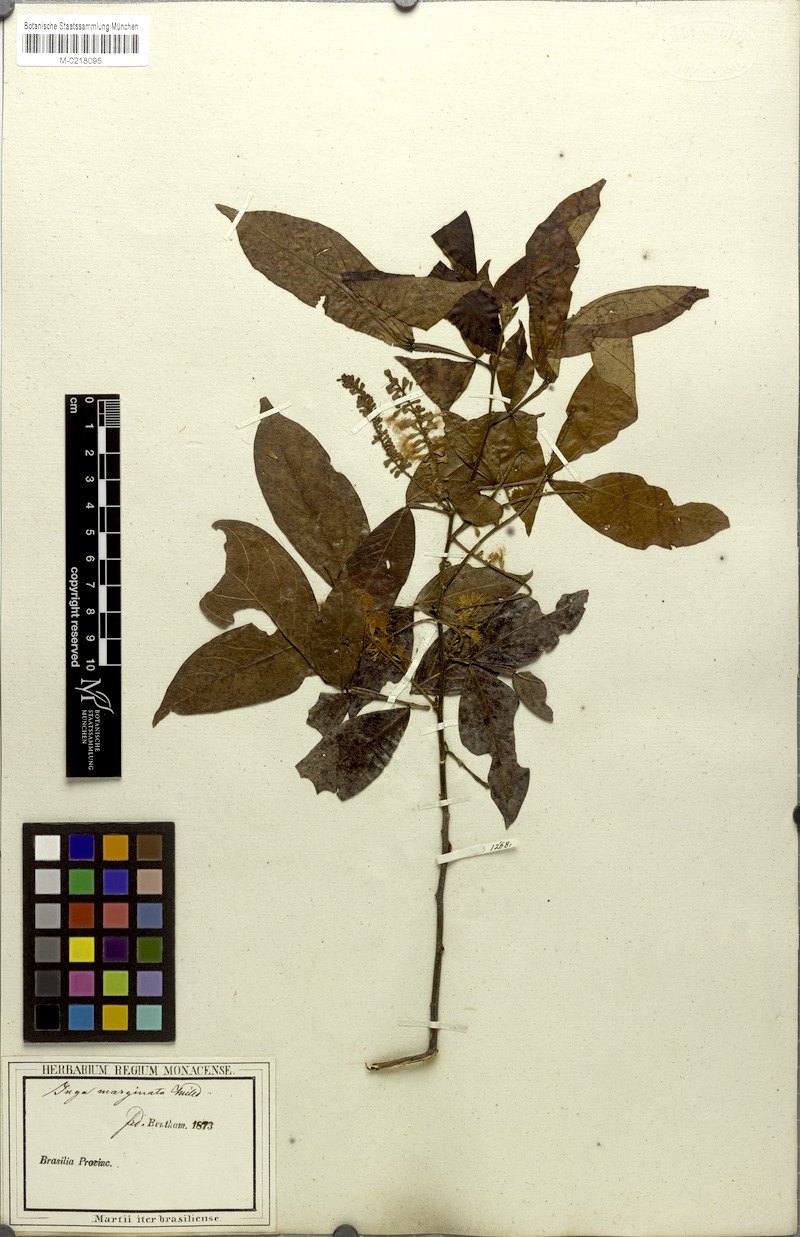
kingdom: Plantae
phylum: Tracheophyta
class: Magnoliopsida
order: Fabales
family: Fabaceae
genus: Inga
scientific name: Inga marginata
